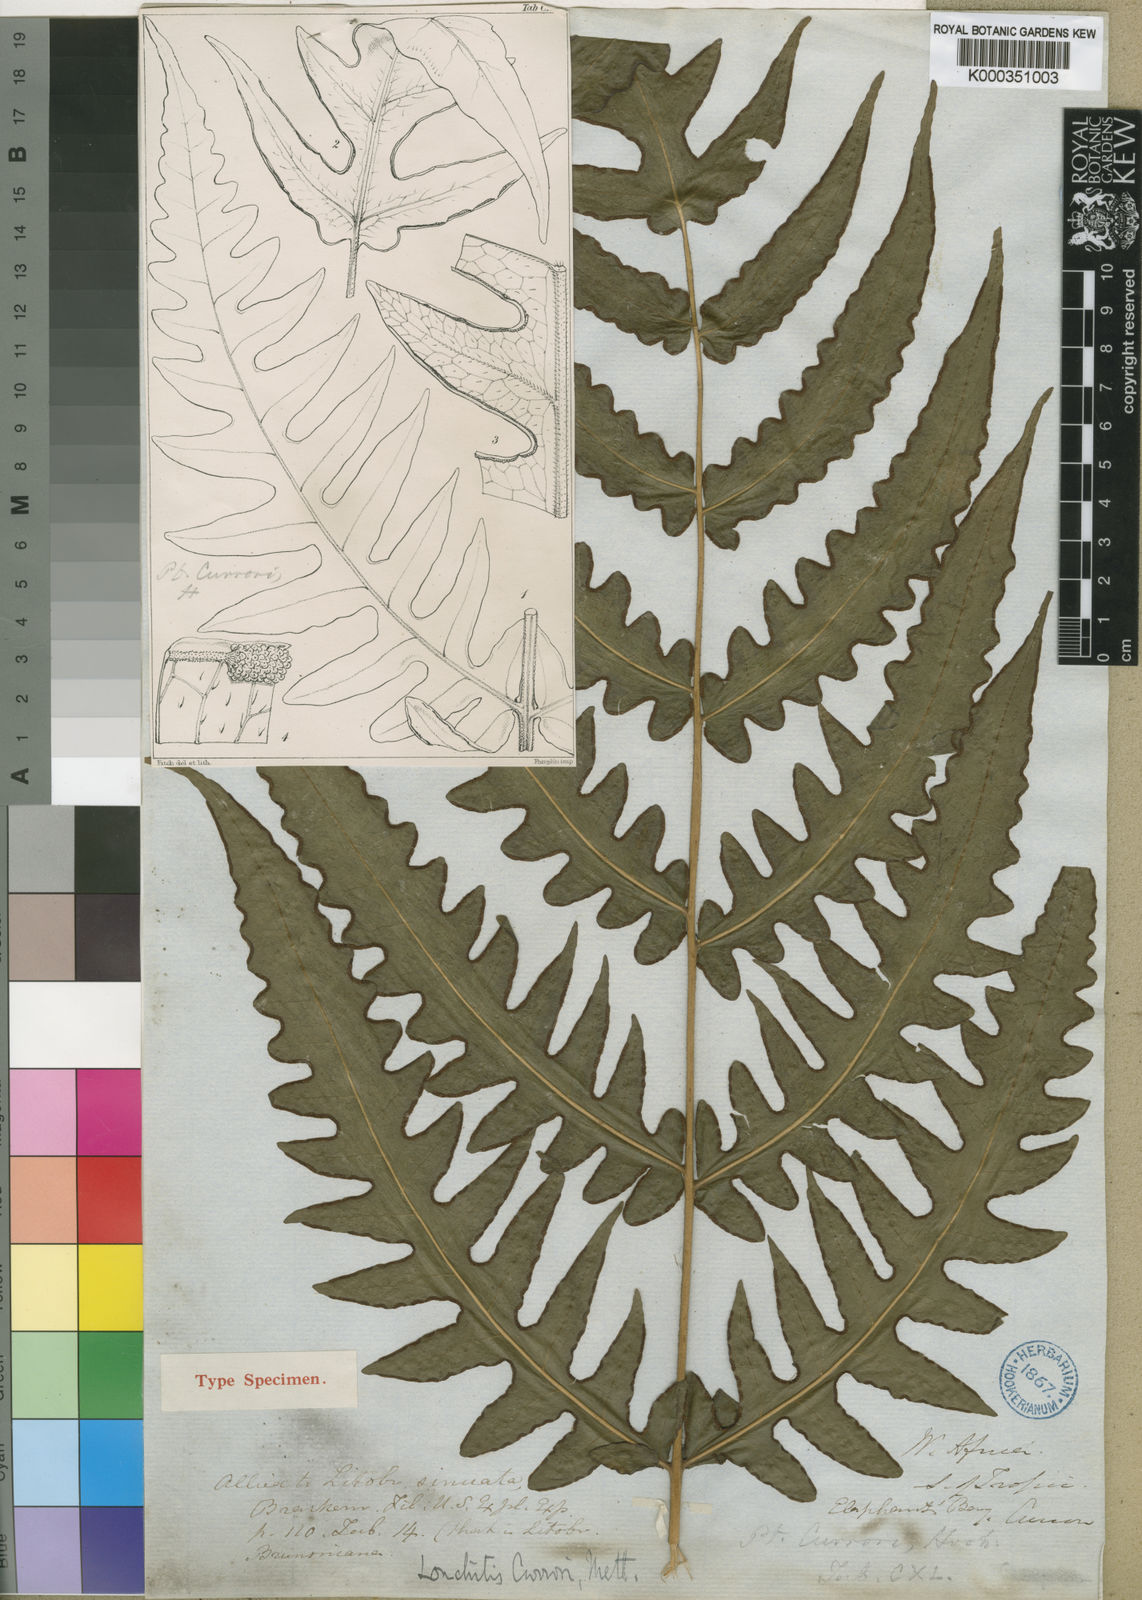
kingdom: Plantae
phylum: Tracheophyta
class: Polypodiopsida
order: Polypodiales
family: Dennstaedtiaceae
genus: Blotiella
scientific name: Blotiella currorii
